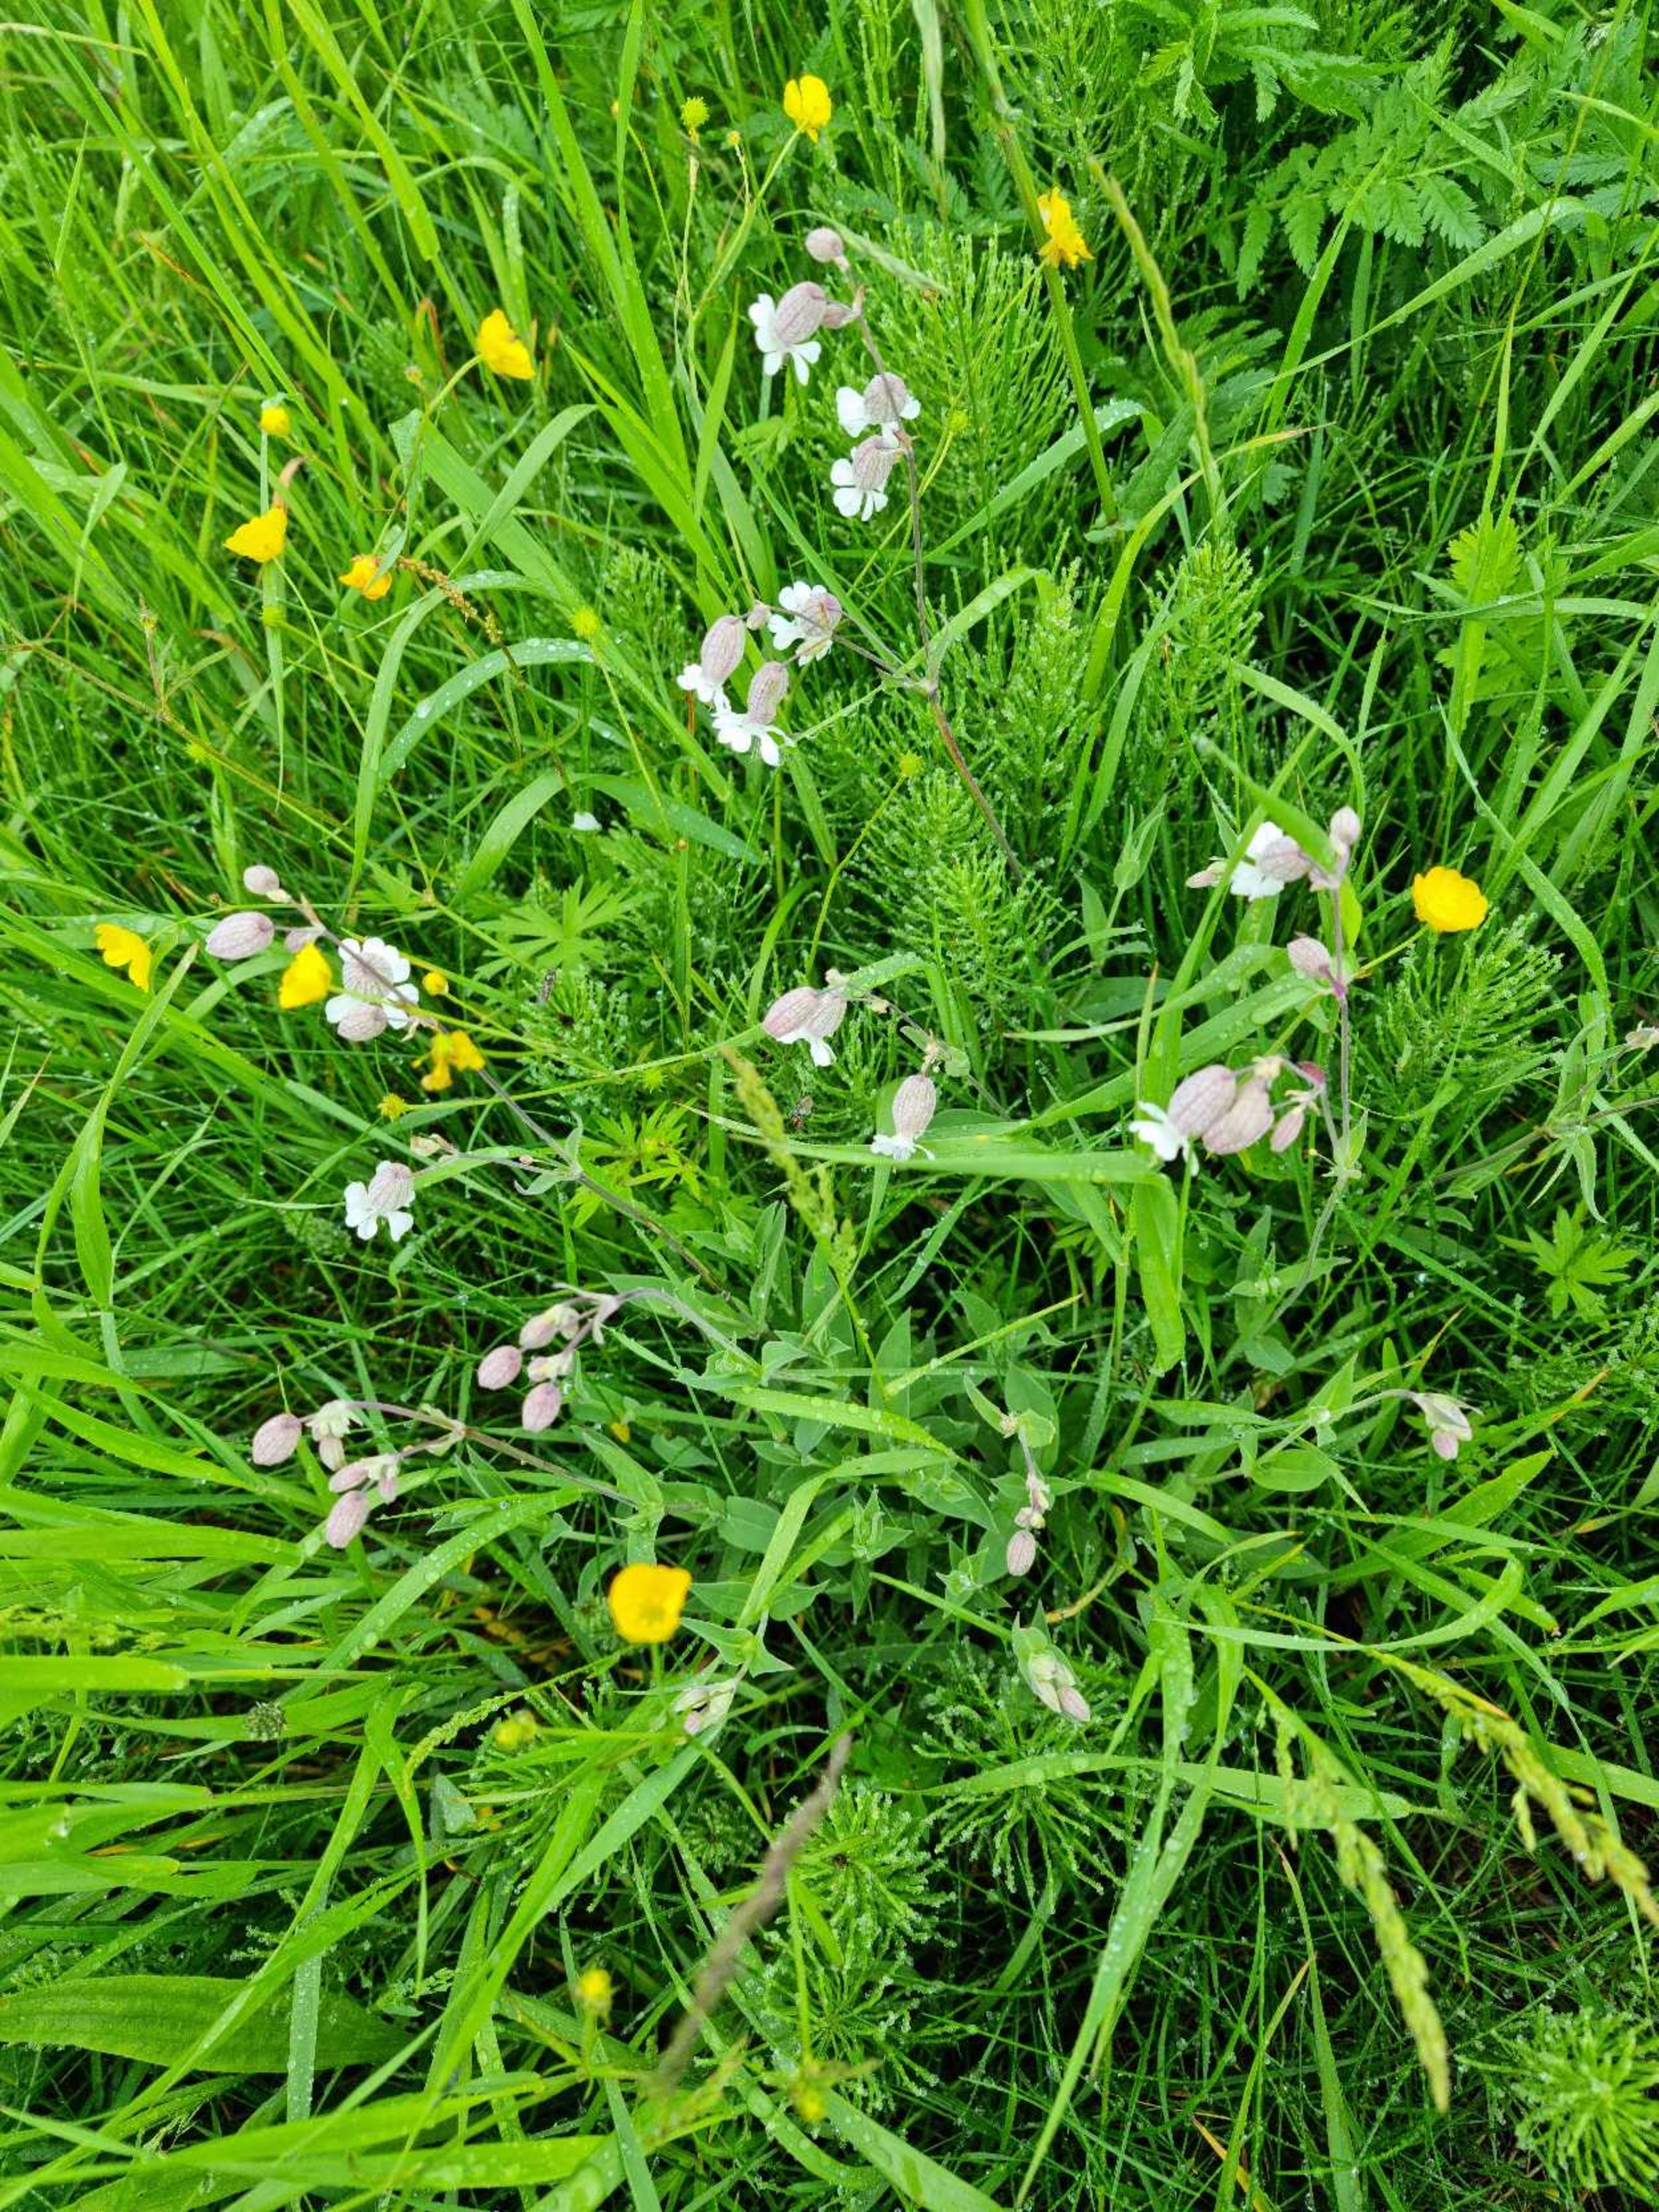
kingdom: Plantae
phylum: Tracheophyta
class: Magnoliopsida
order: Caryophyllales
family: Caryophyllaceae
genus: Silene
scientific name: Silene vulgaris
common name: Blæresmælde
